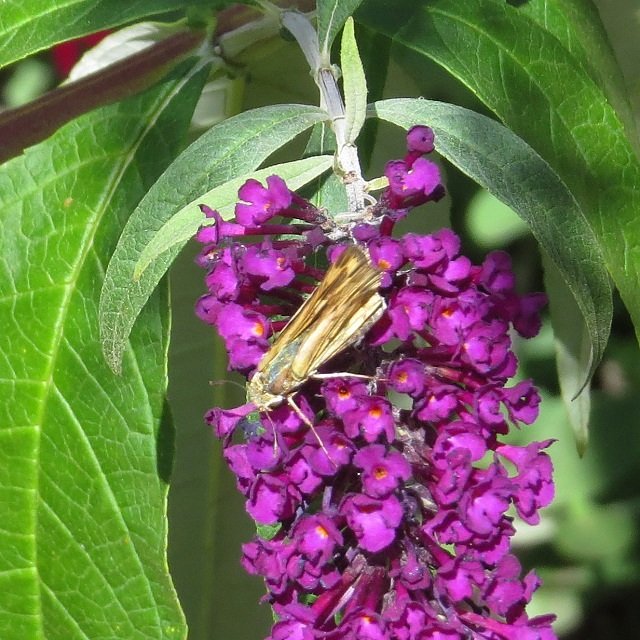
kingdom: Animalia
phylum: Arthropoda
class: Insecta
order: Lepidoptera
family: Hesperiidae
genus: Hylephila
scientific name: Hylephila phyleus
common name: Fiery Skipper
